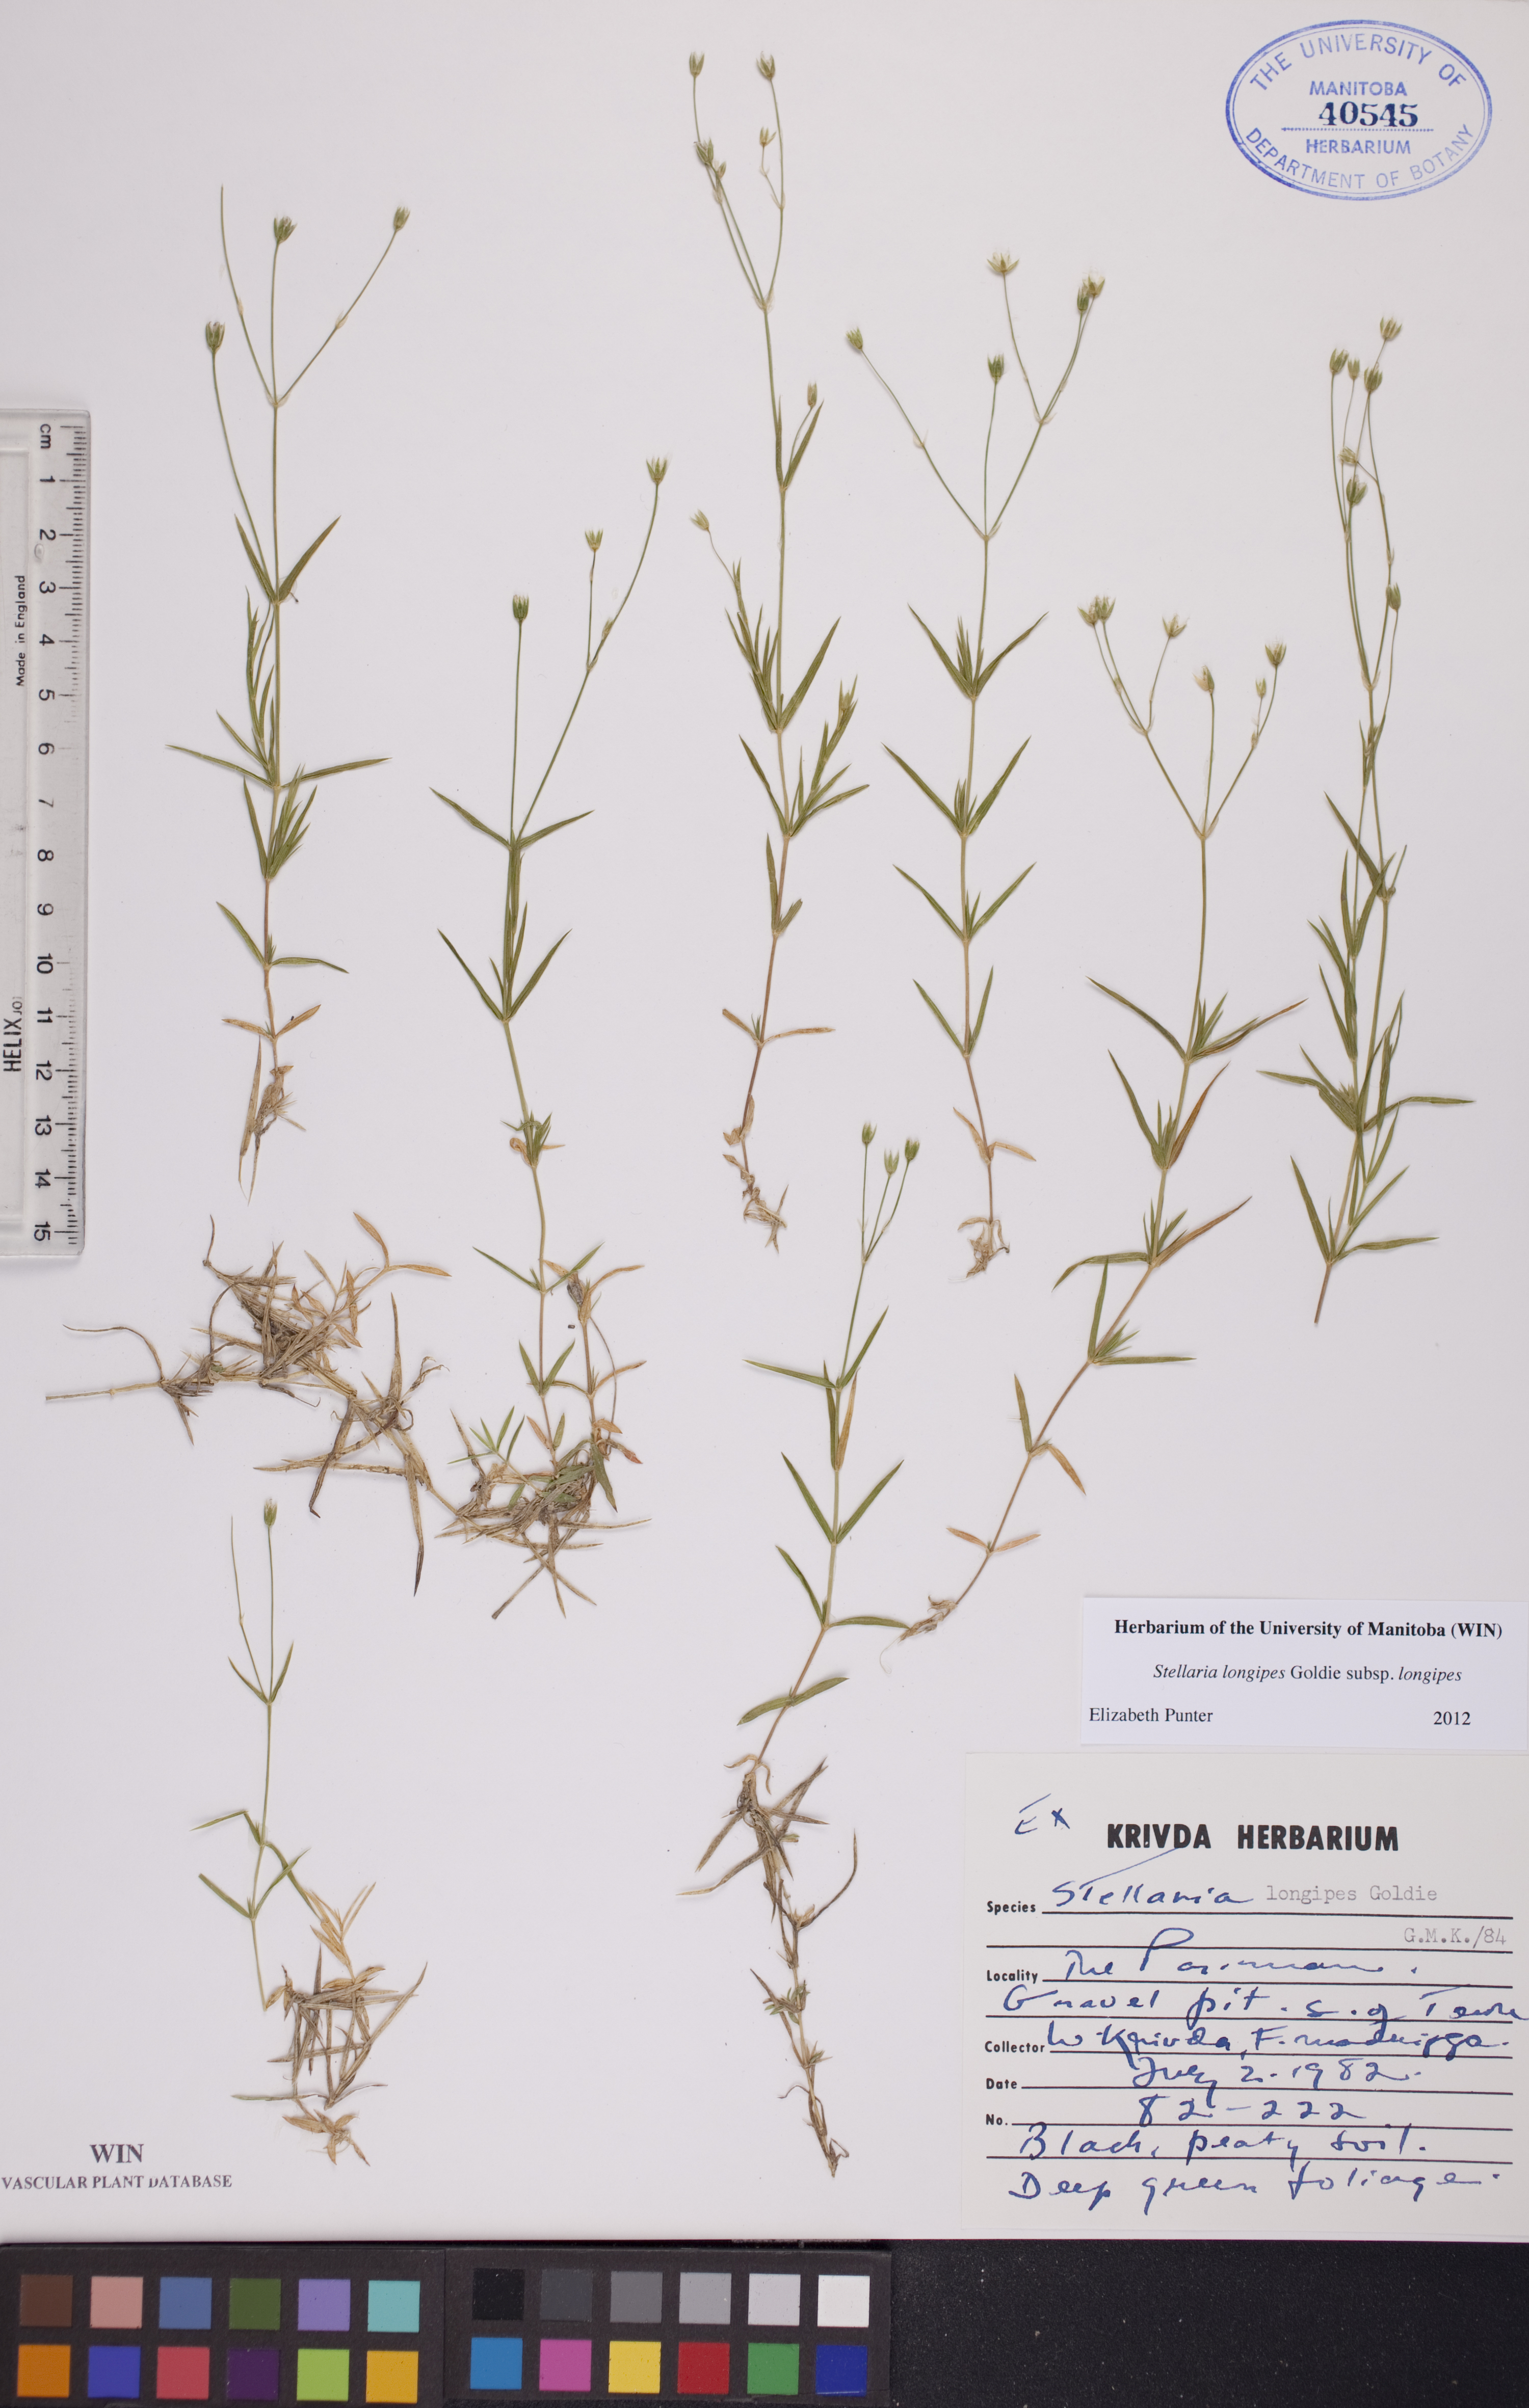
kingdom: Plantae
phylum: Tracheophyta
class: Magnoliopsida
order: Caryophyllales
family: Caryophyllaceae
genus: Stellaria
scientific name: Stellaria longipes
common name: Goldie's starwort
